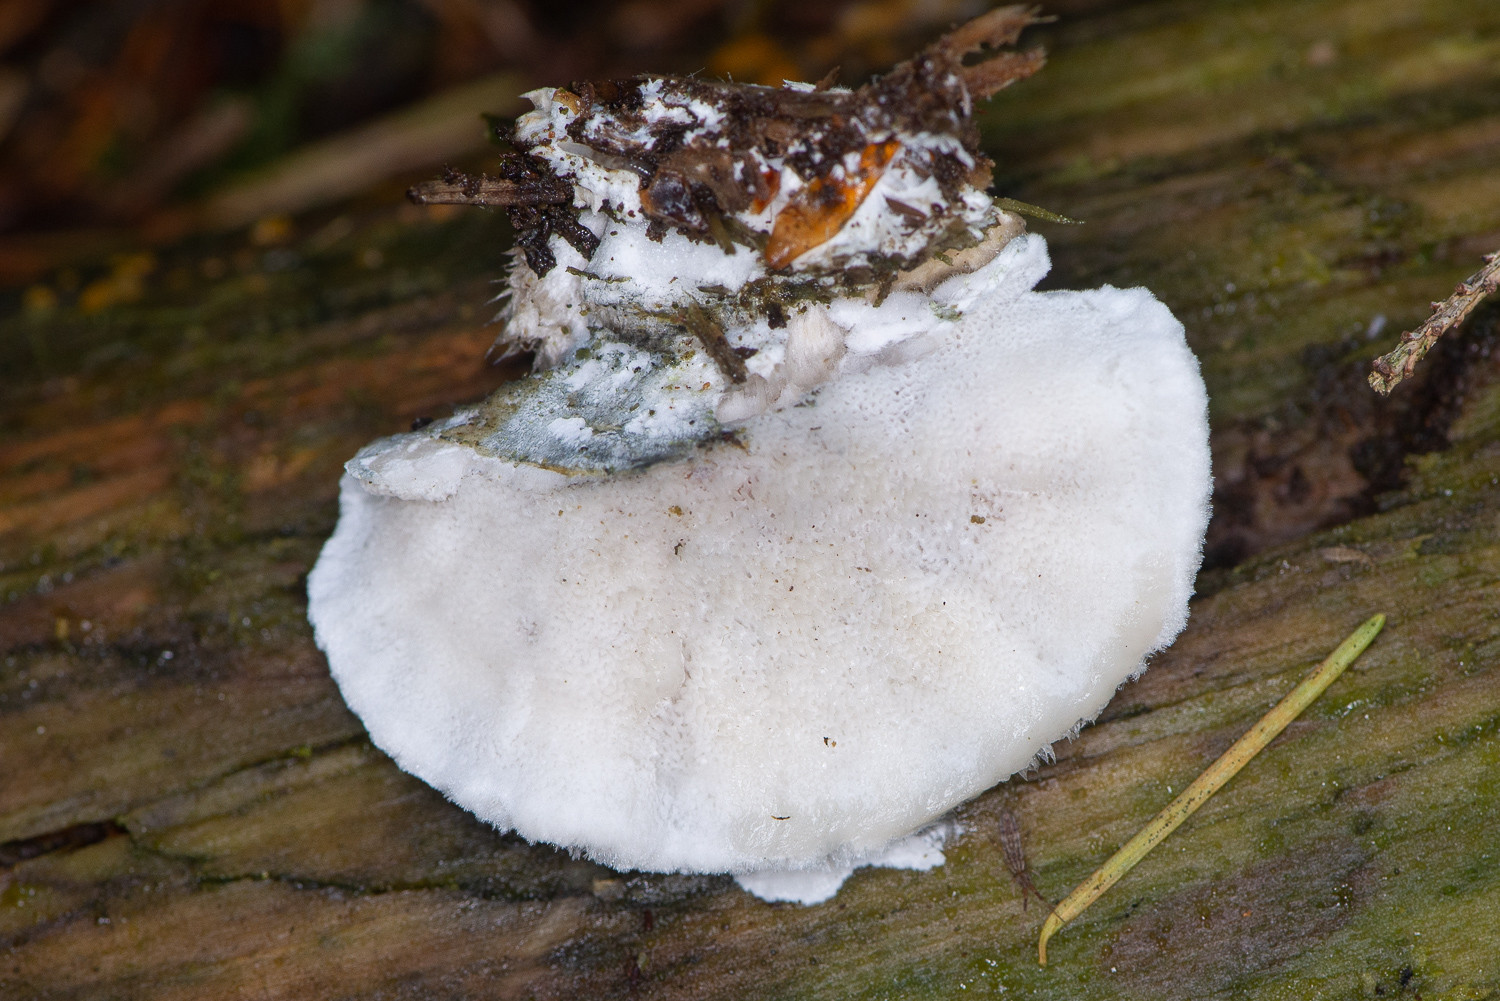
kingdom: Fungi
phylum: Basidiomycota
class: Agaricomycetes
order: Polyporales
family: Polyporaceae
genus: Cyanosporus
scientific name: Cyanosporus caesius
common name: blålig kødporesvamp
